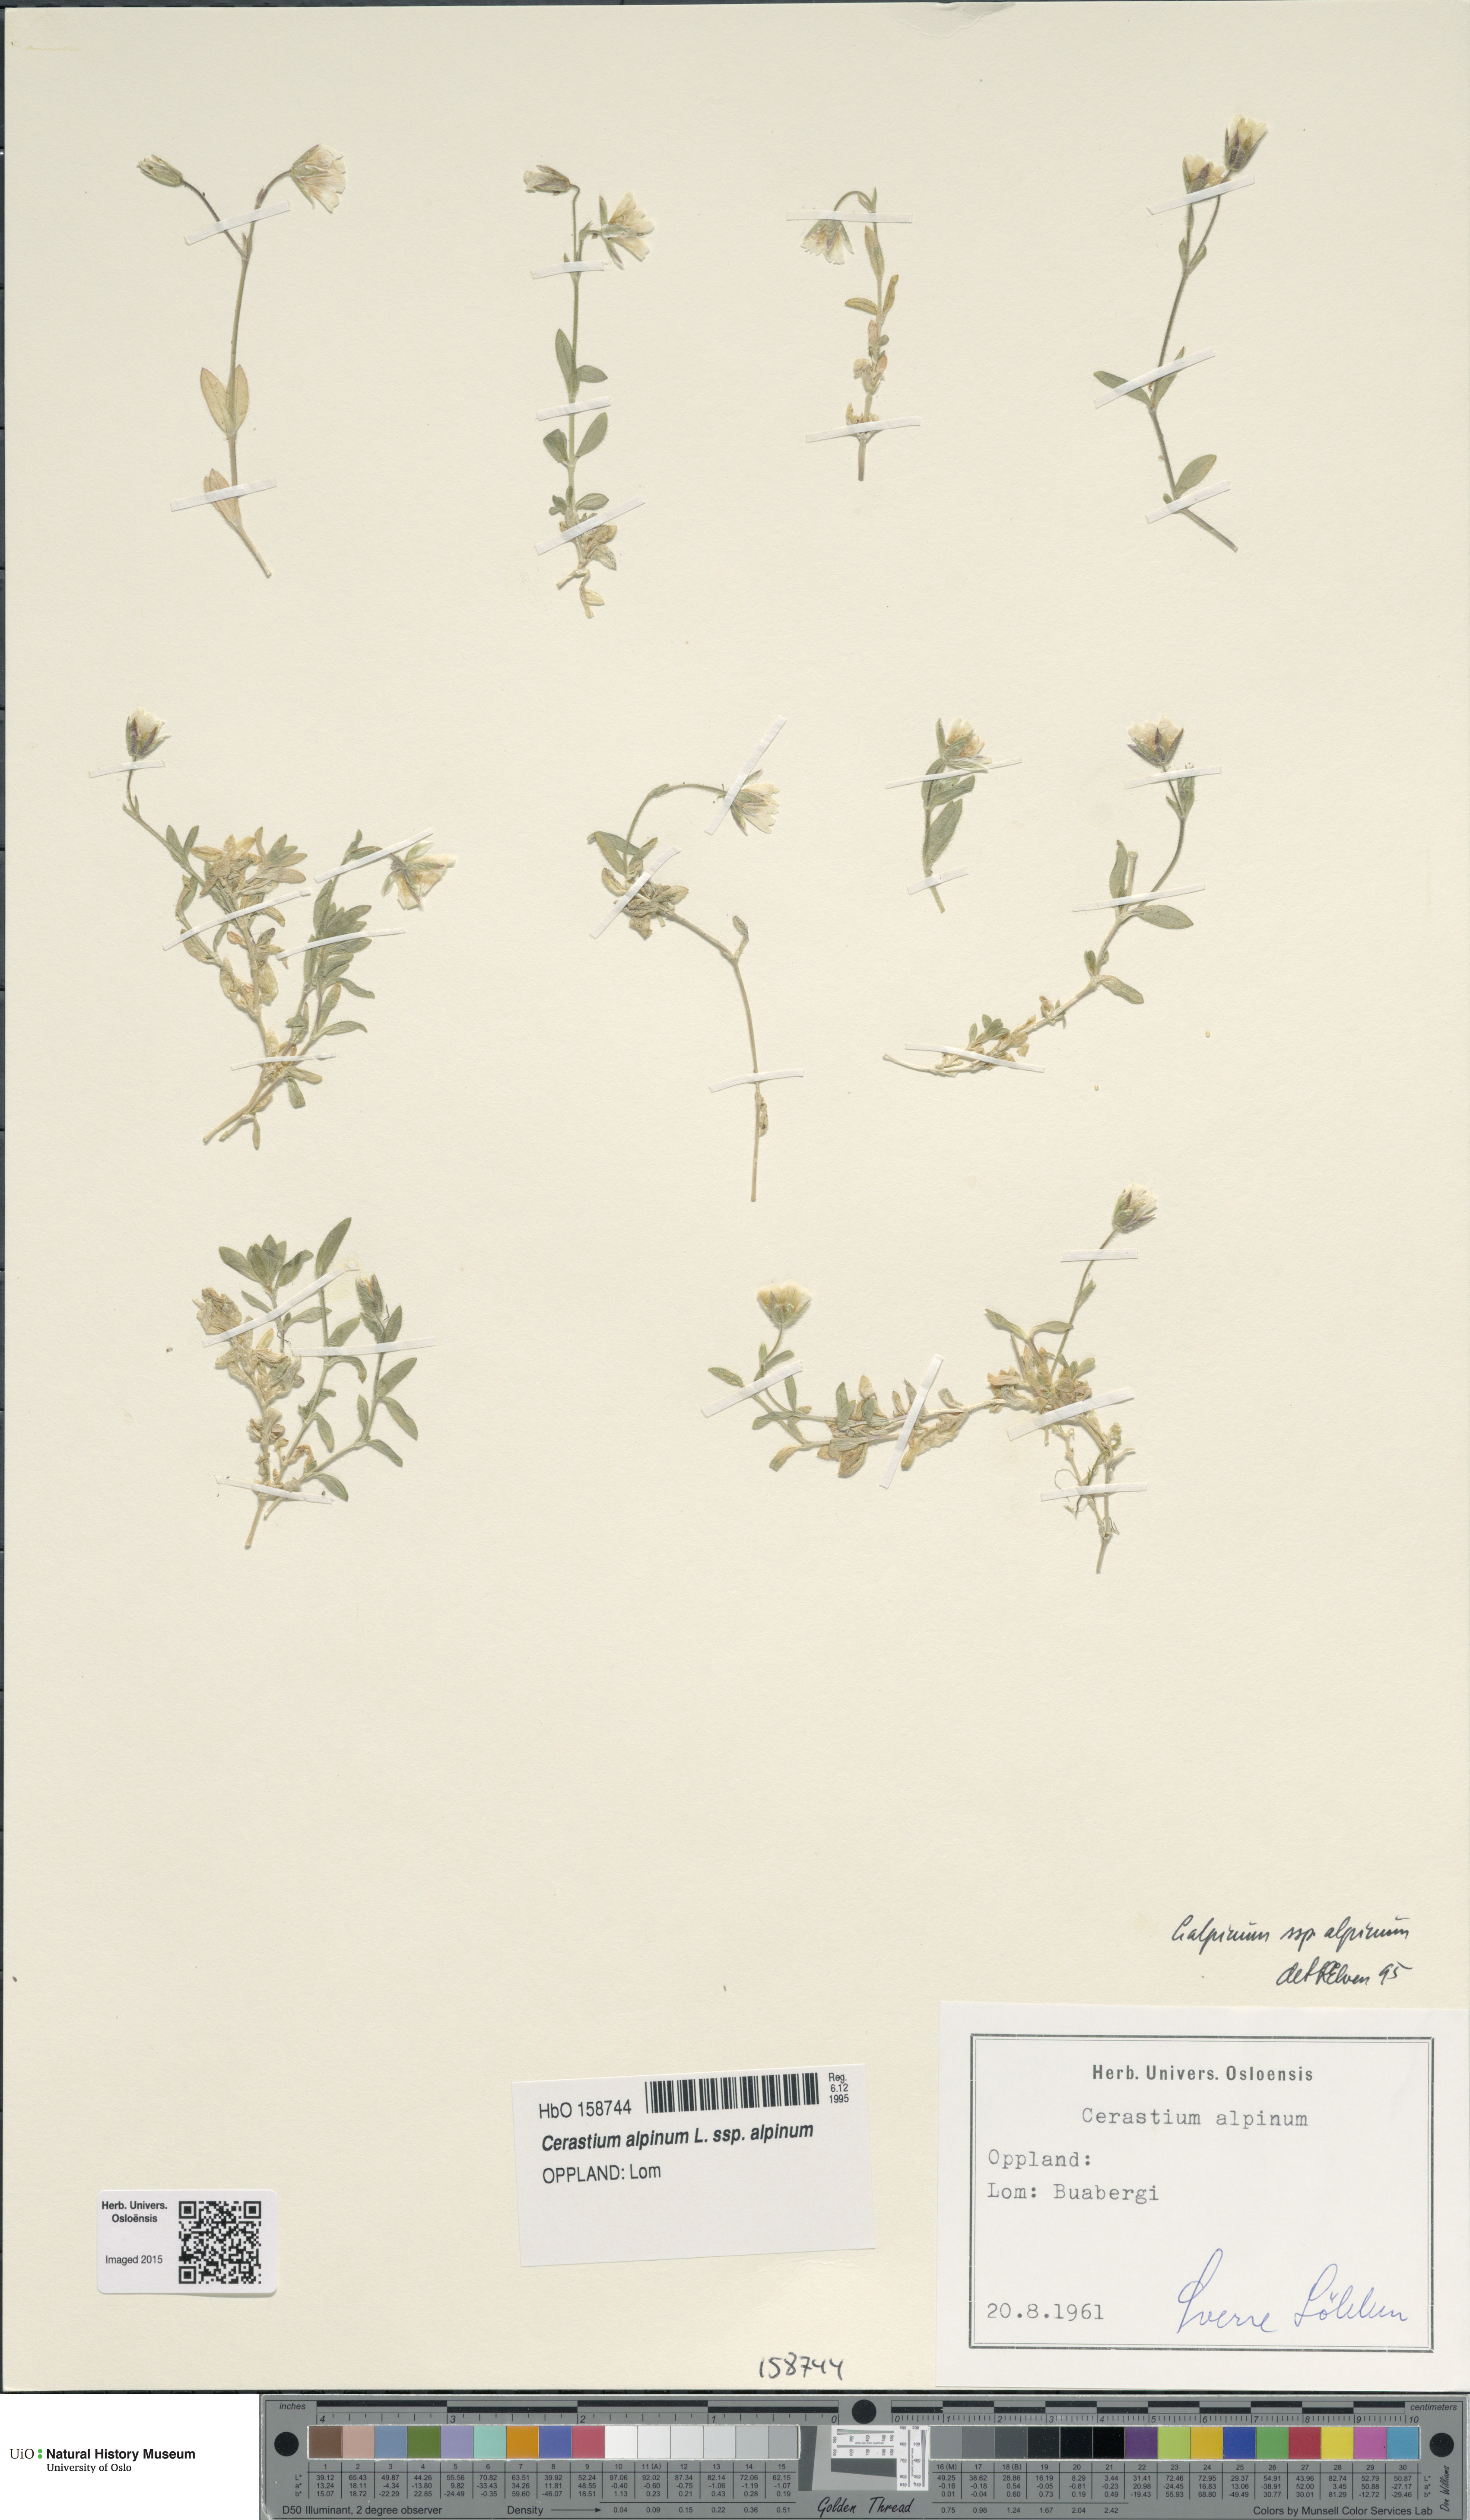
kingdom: Plantae
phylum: Tracheophyta
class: Magnoliopsida
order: Caryophyllales
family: Caryophyllaceae
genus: Cerastium
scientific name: Cerastium alpinum
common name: Alpine mouse-ear
